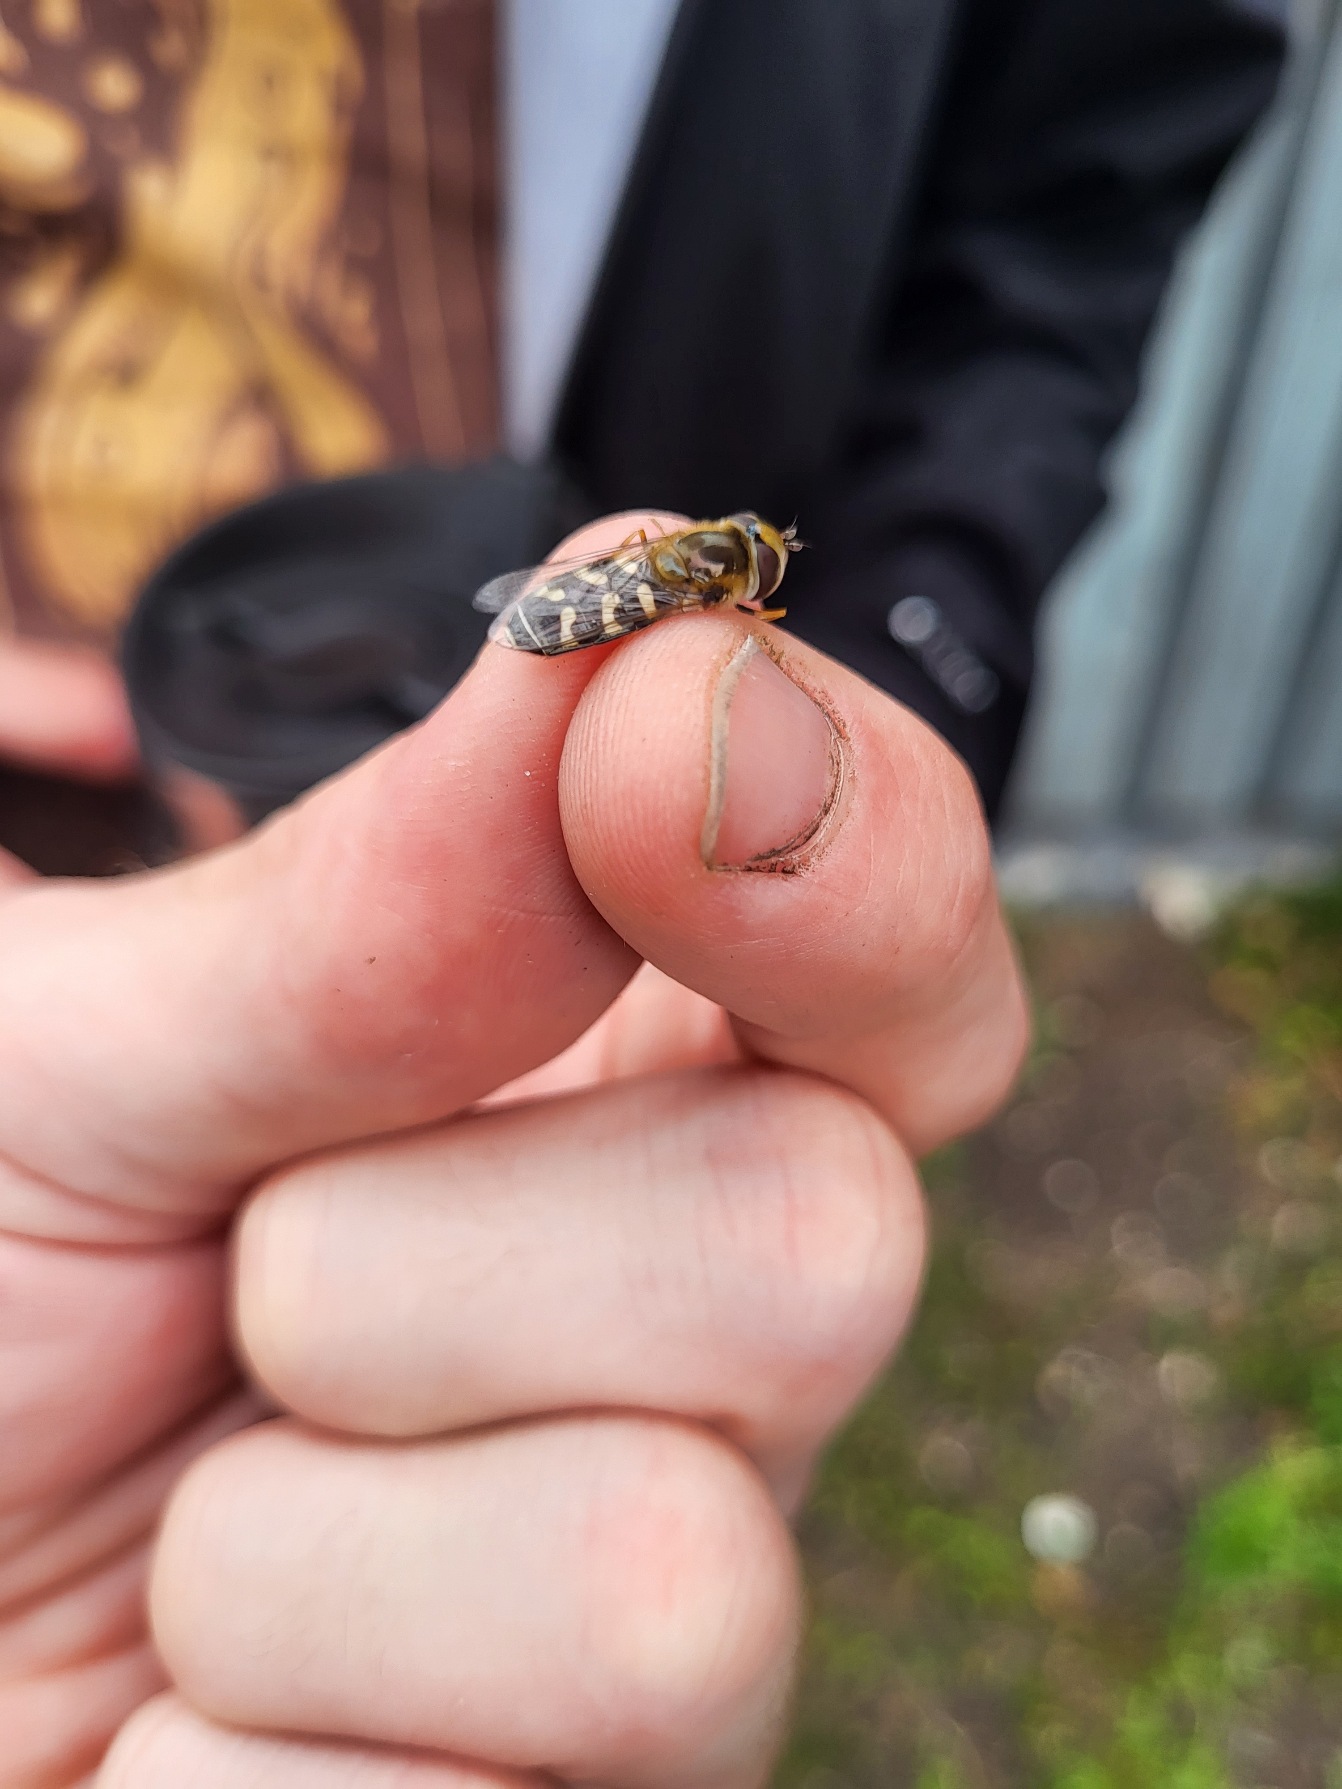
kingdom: Animalia
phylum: Arthropoda
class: Insecta
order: Diptera
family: Syrphidae
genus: Scaeva
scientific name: Scaeva pyrastri
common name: Hvidplettet agersvirreflue
